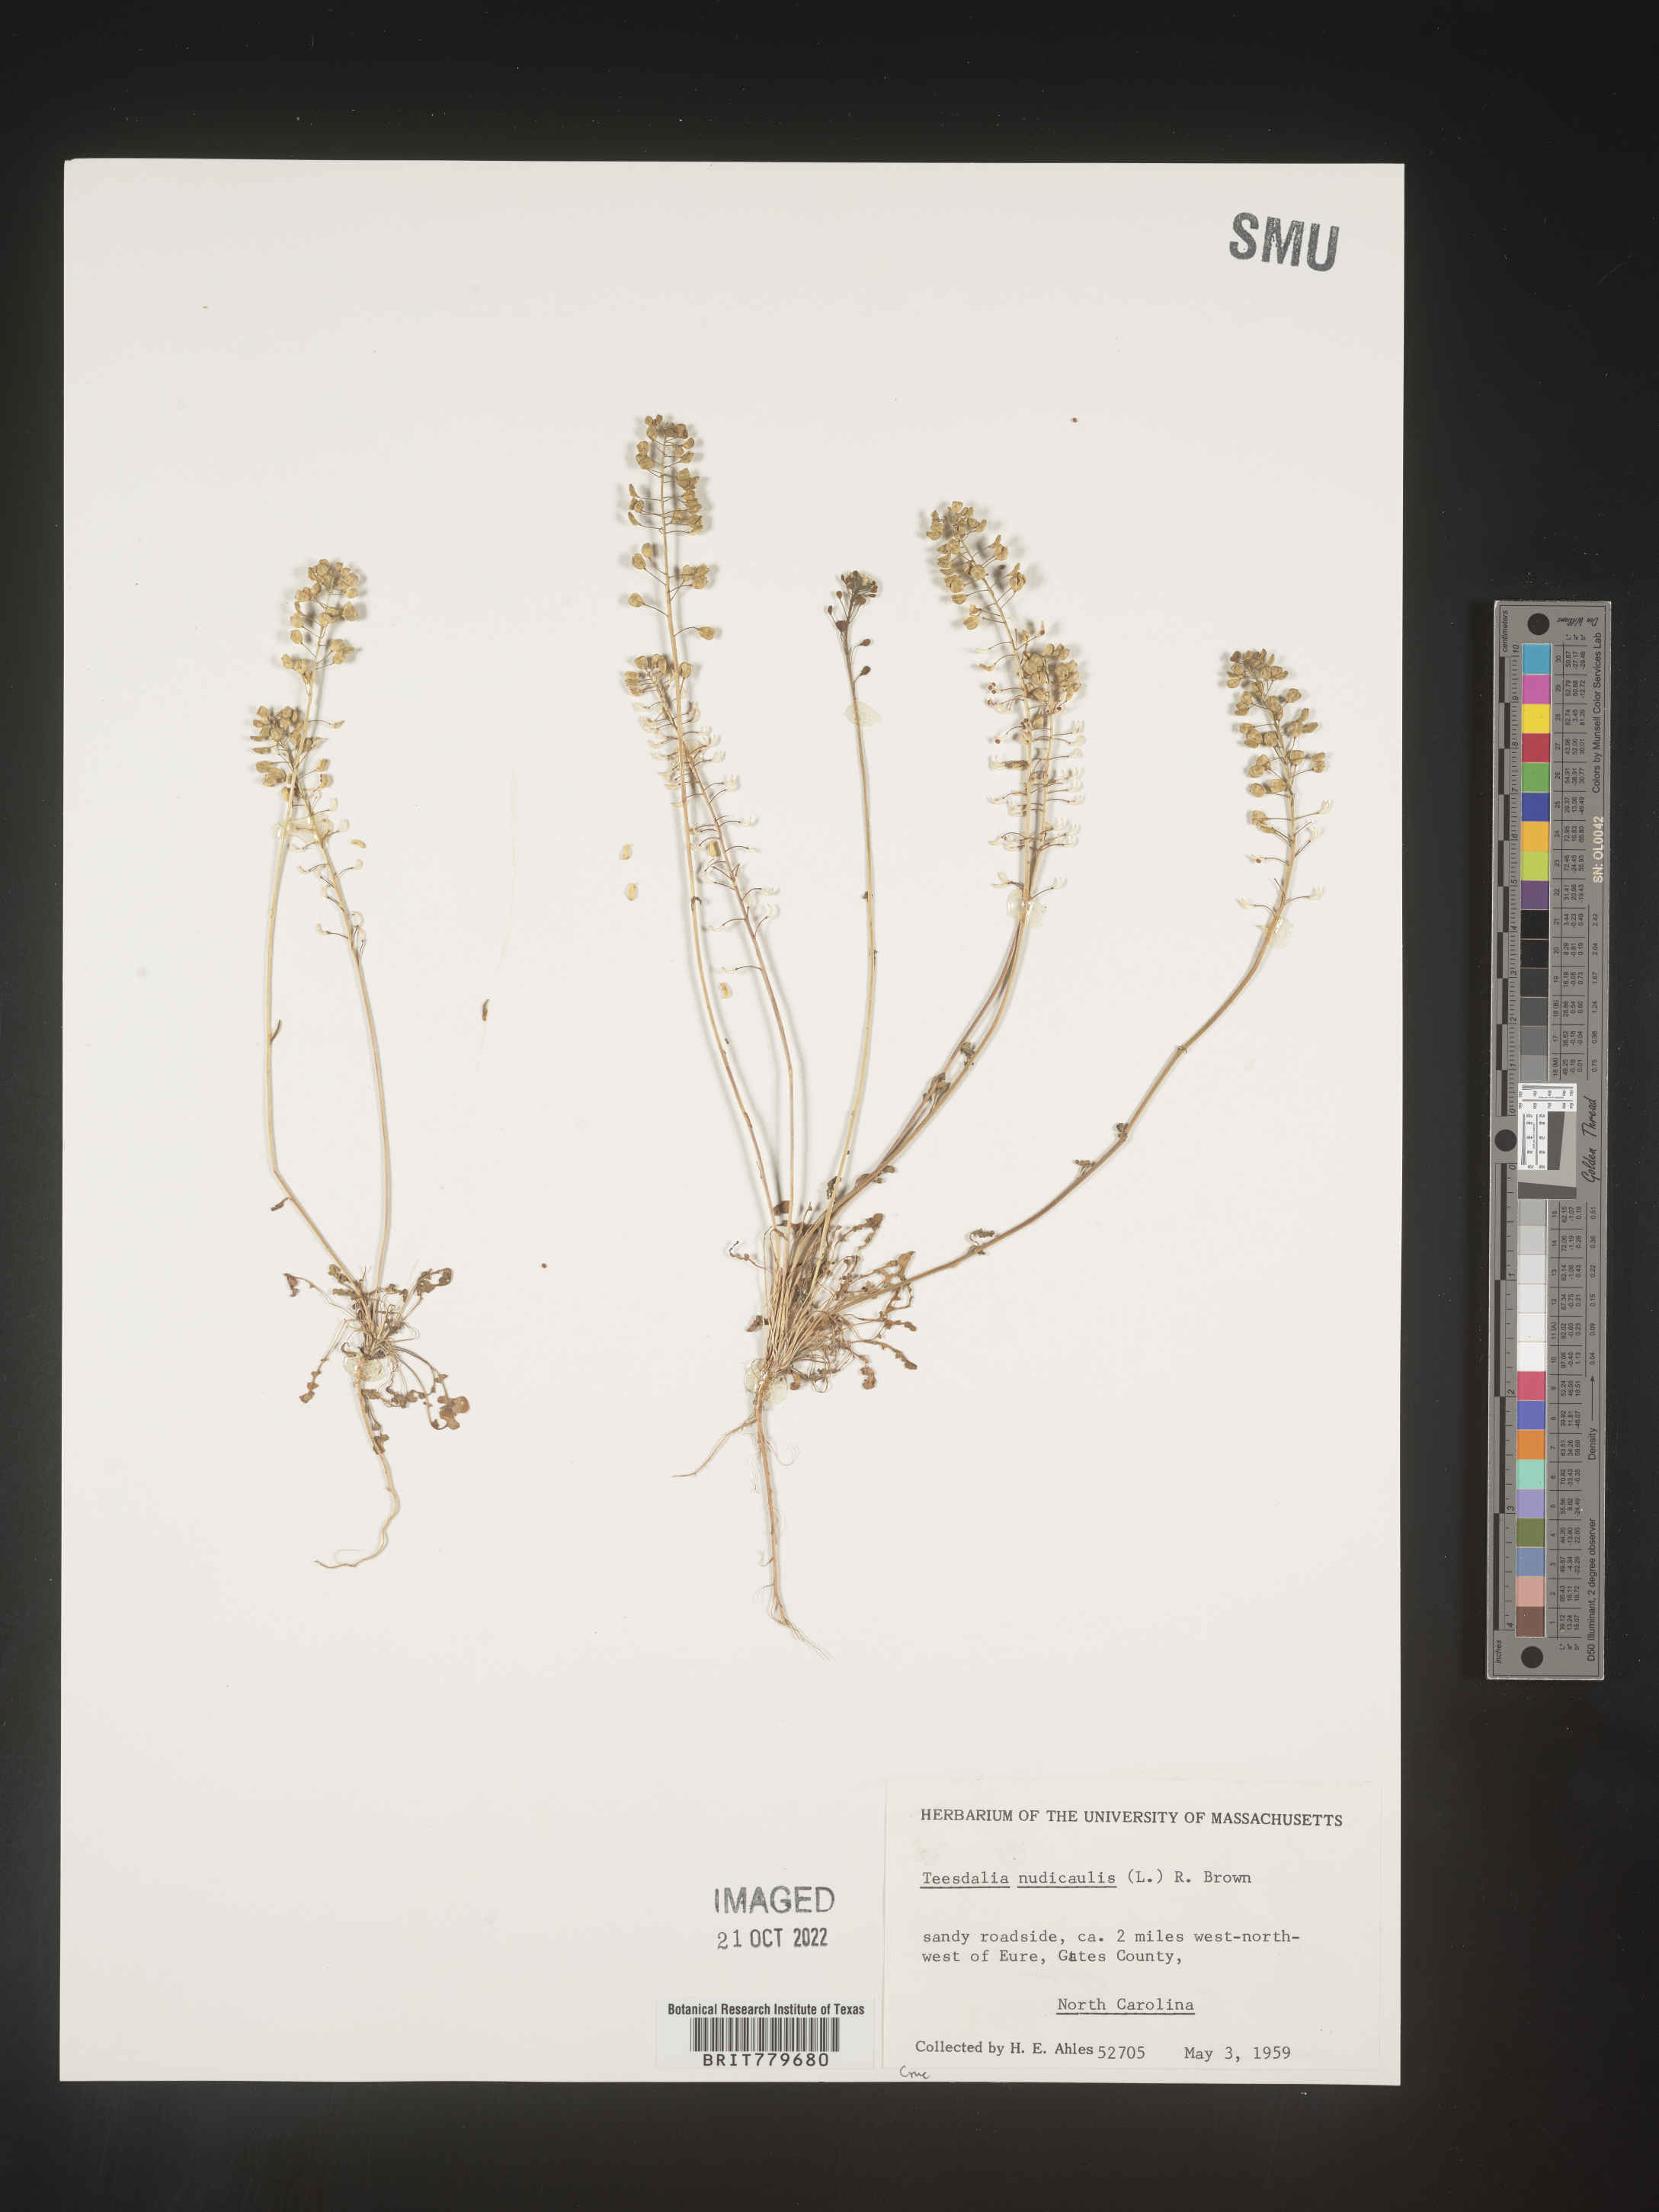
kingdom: Plantae
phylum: Tracheophyta
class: Magnoliopsida
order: Brassicales
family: Brassicaceae
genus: Teesdalia
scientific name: Teesdalia
